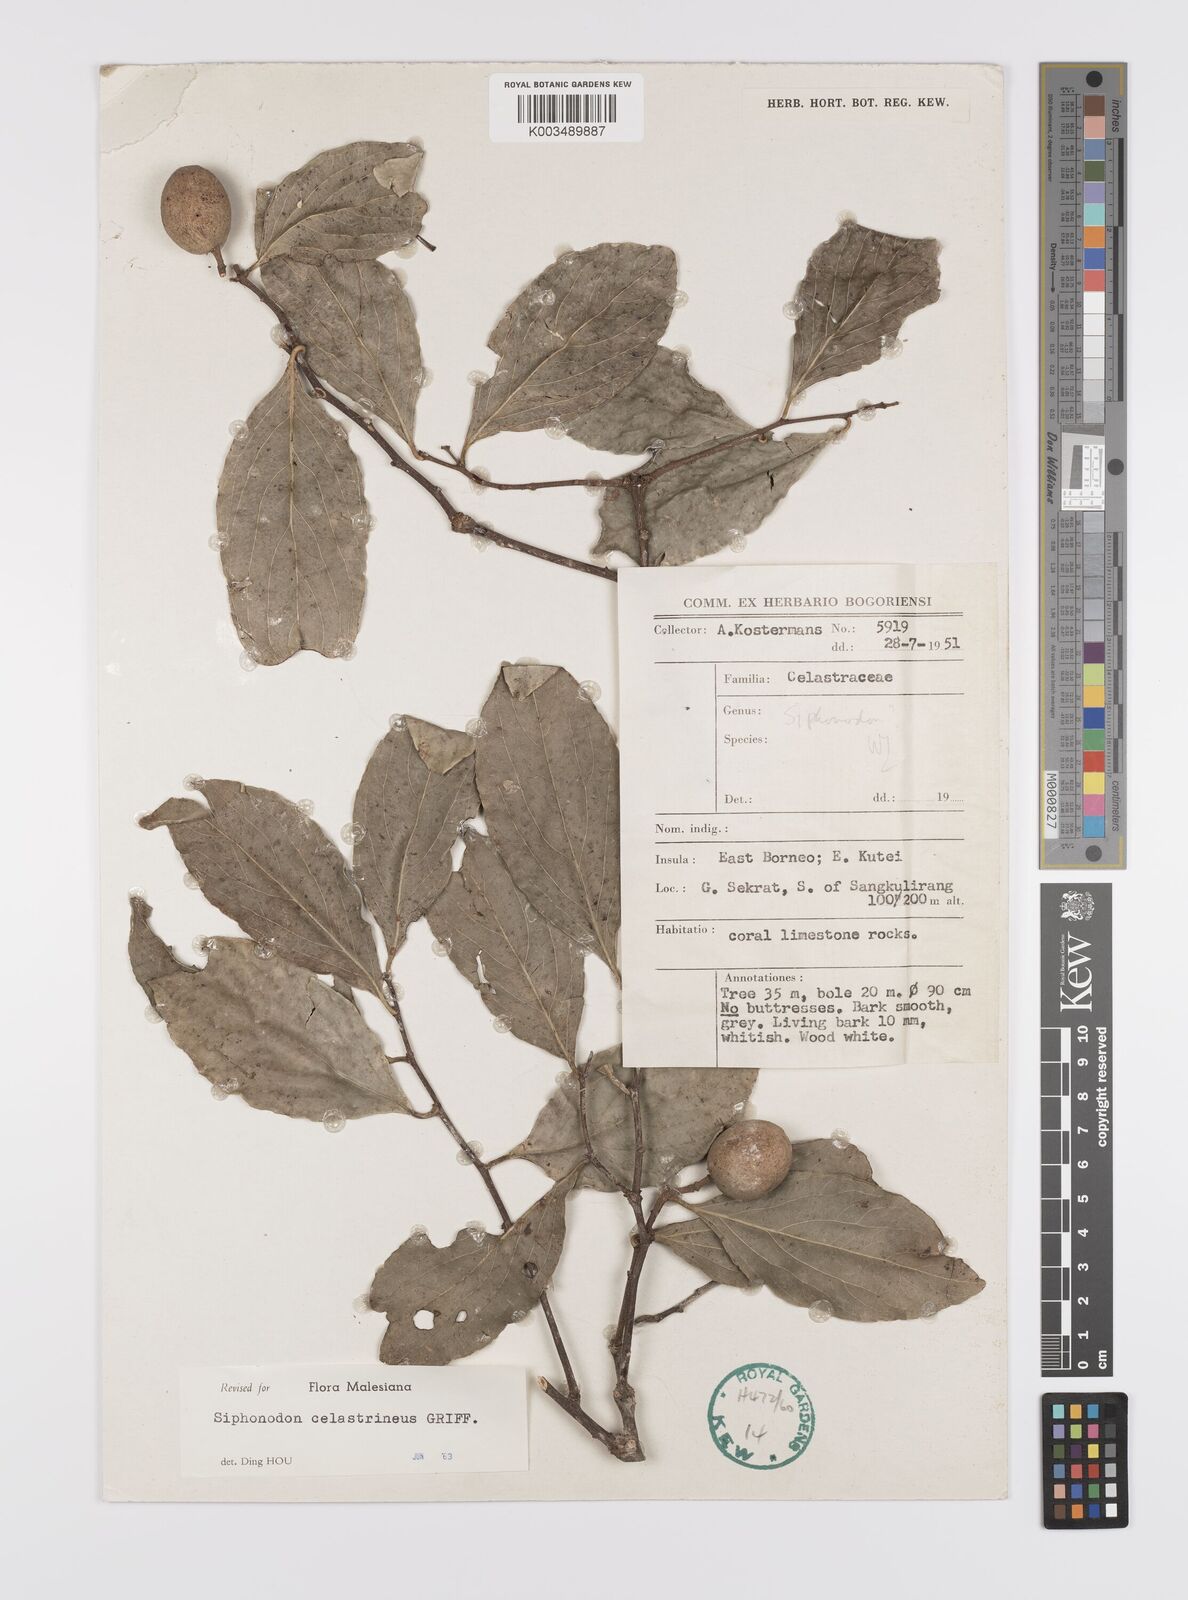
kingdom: Plantae
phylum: Tracheophyta
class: Magnoliopsida
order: Celastrales
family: Celastraceae
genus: Siphonodon
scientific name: Siphonodon celastrineus
